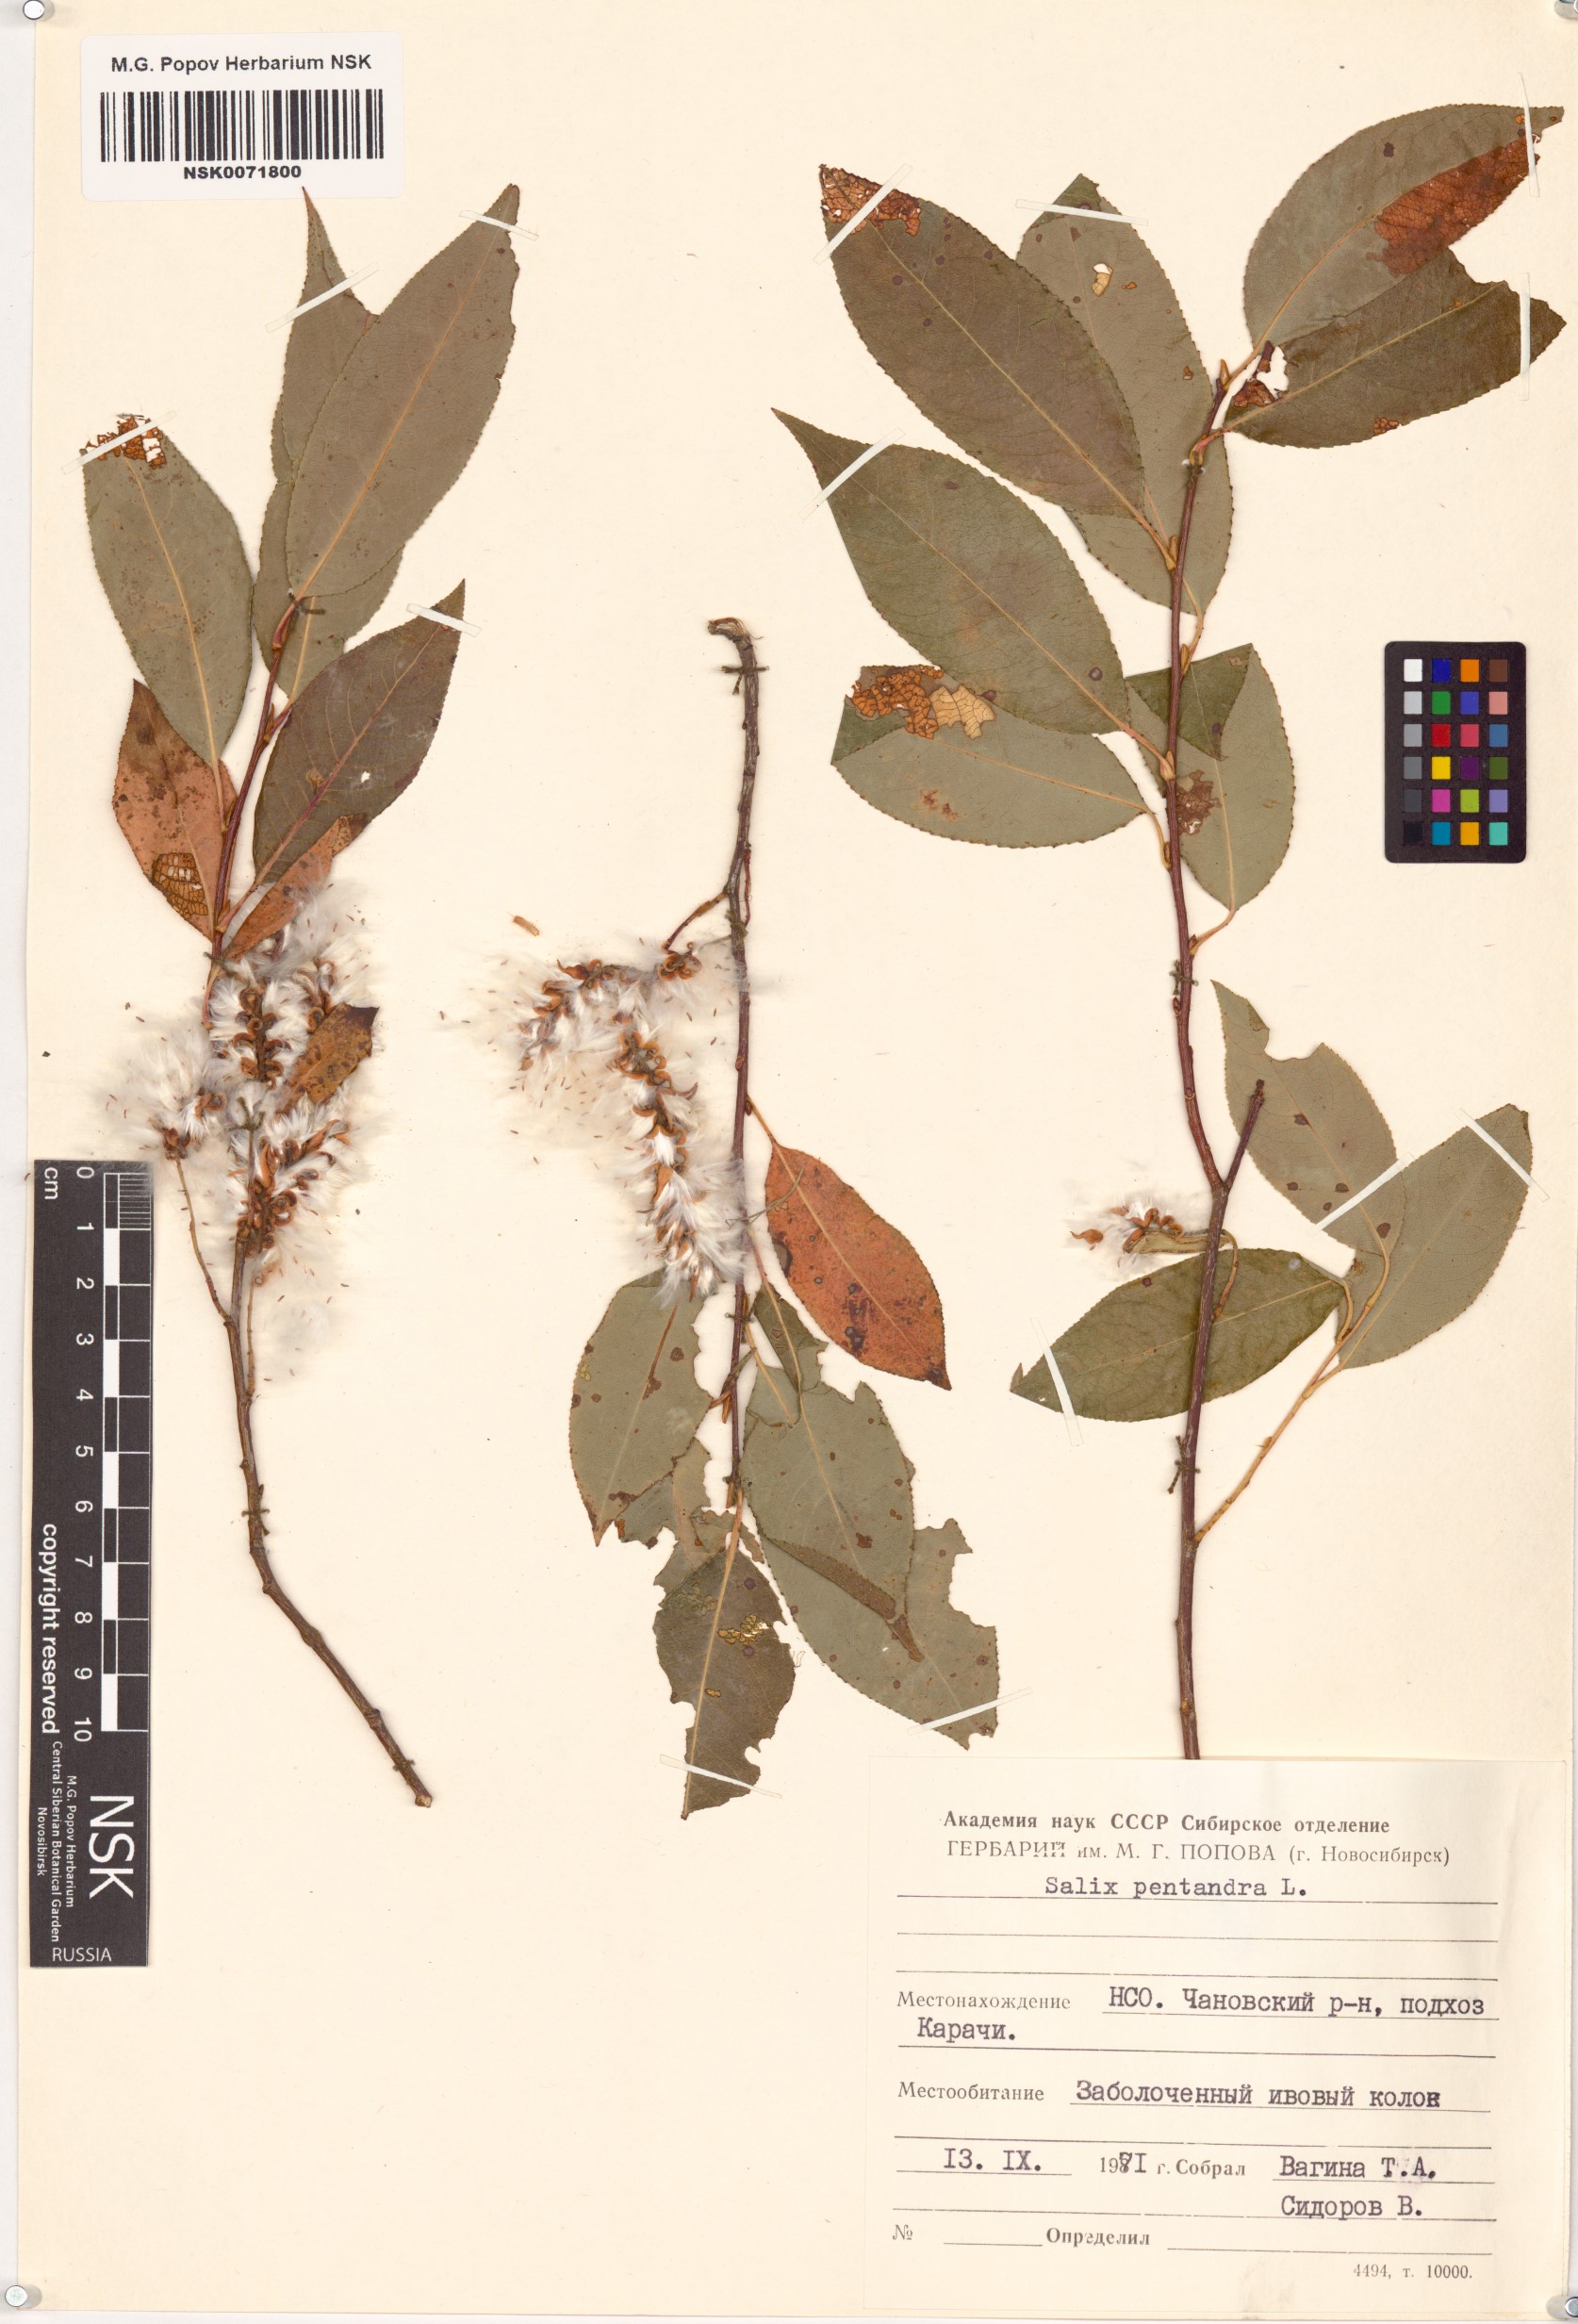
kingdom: Plantae
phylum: Tracheophyta
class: Magnoliopsida
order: Malpighiales
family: Salicaceae
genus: Salix
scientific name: Salix pentandra
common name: Bay willow
